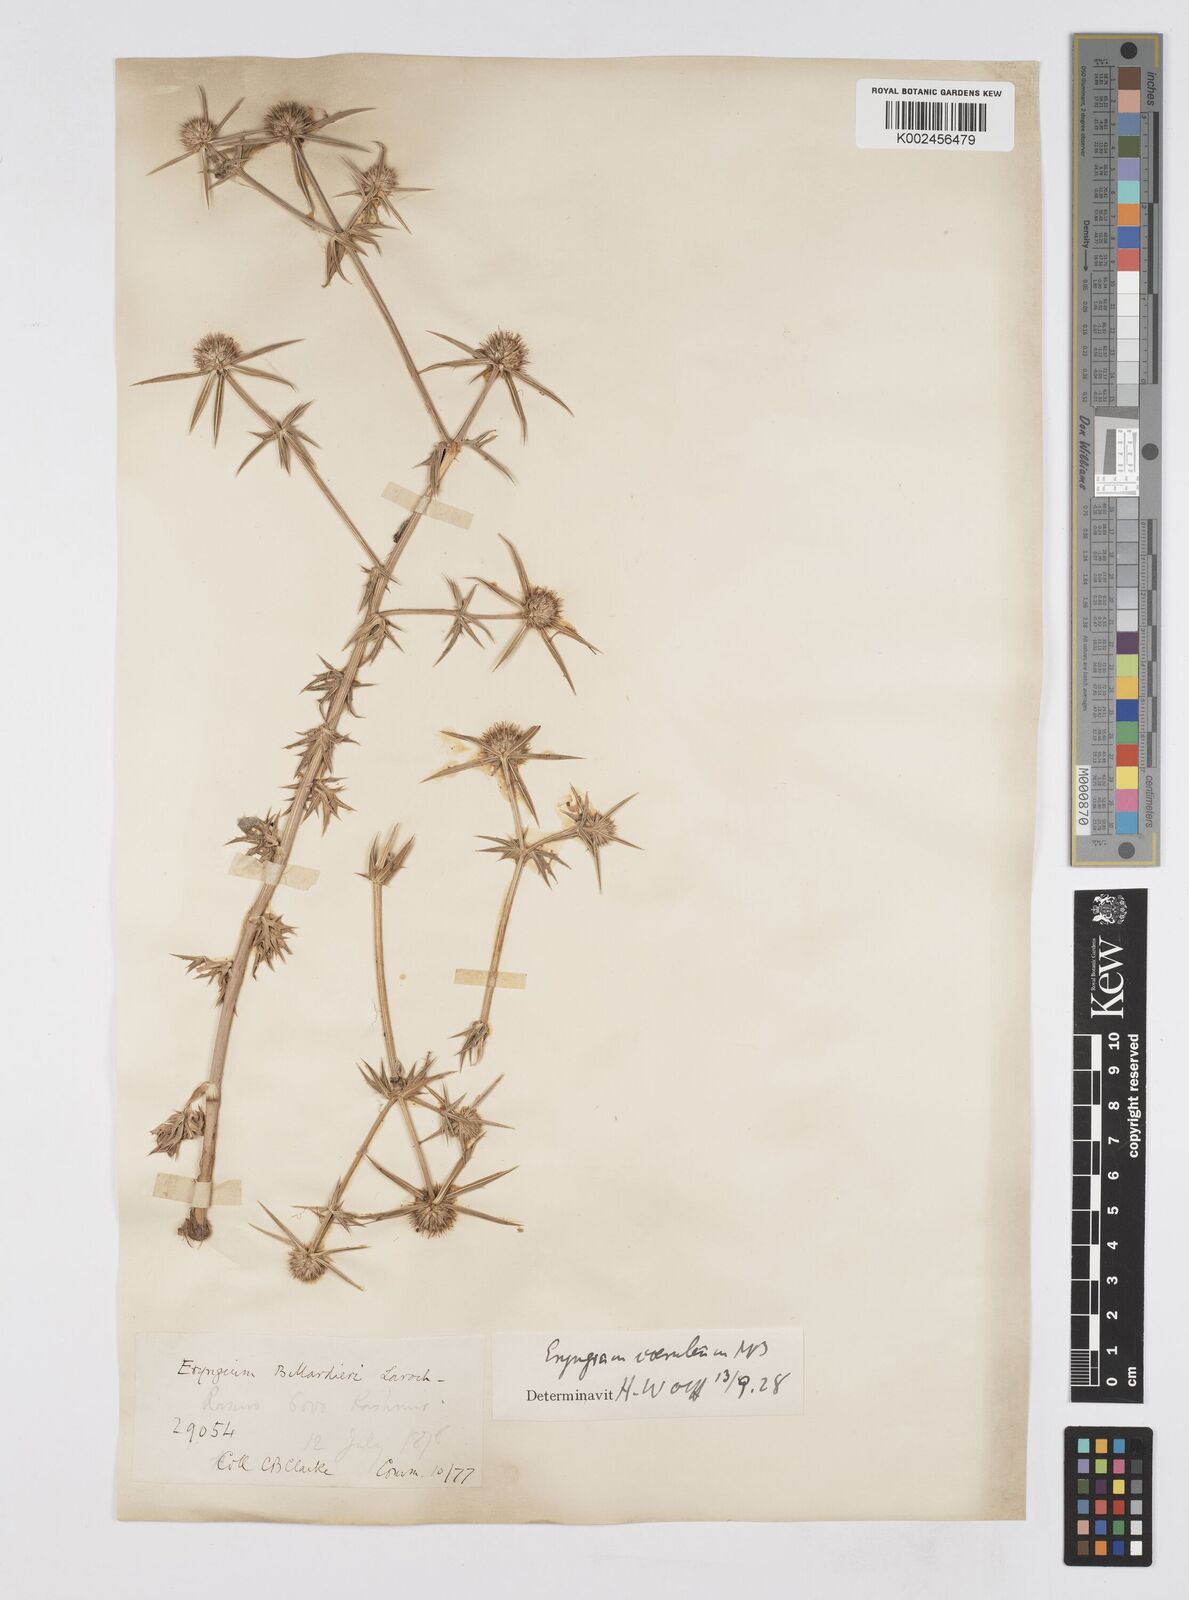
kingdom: Plantae
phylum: Tracheophyta
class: Magnoliopsida
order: Apiales
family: Apiaceae
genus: Eryngium
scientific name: Eryngium caeruleum
